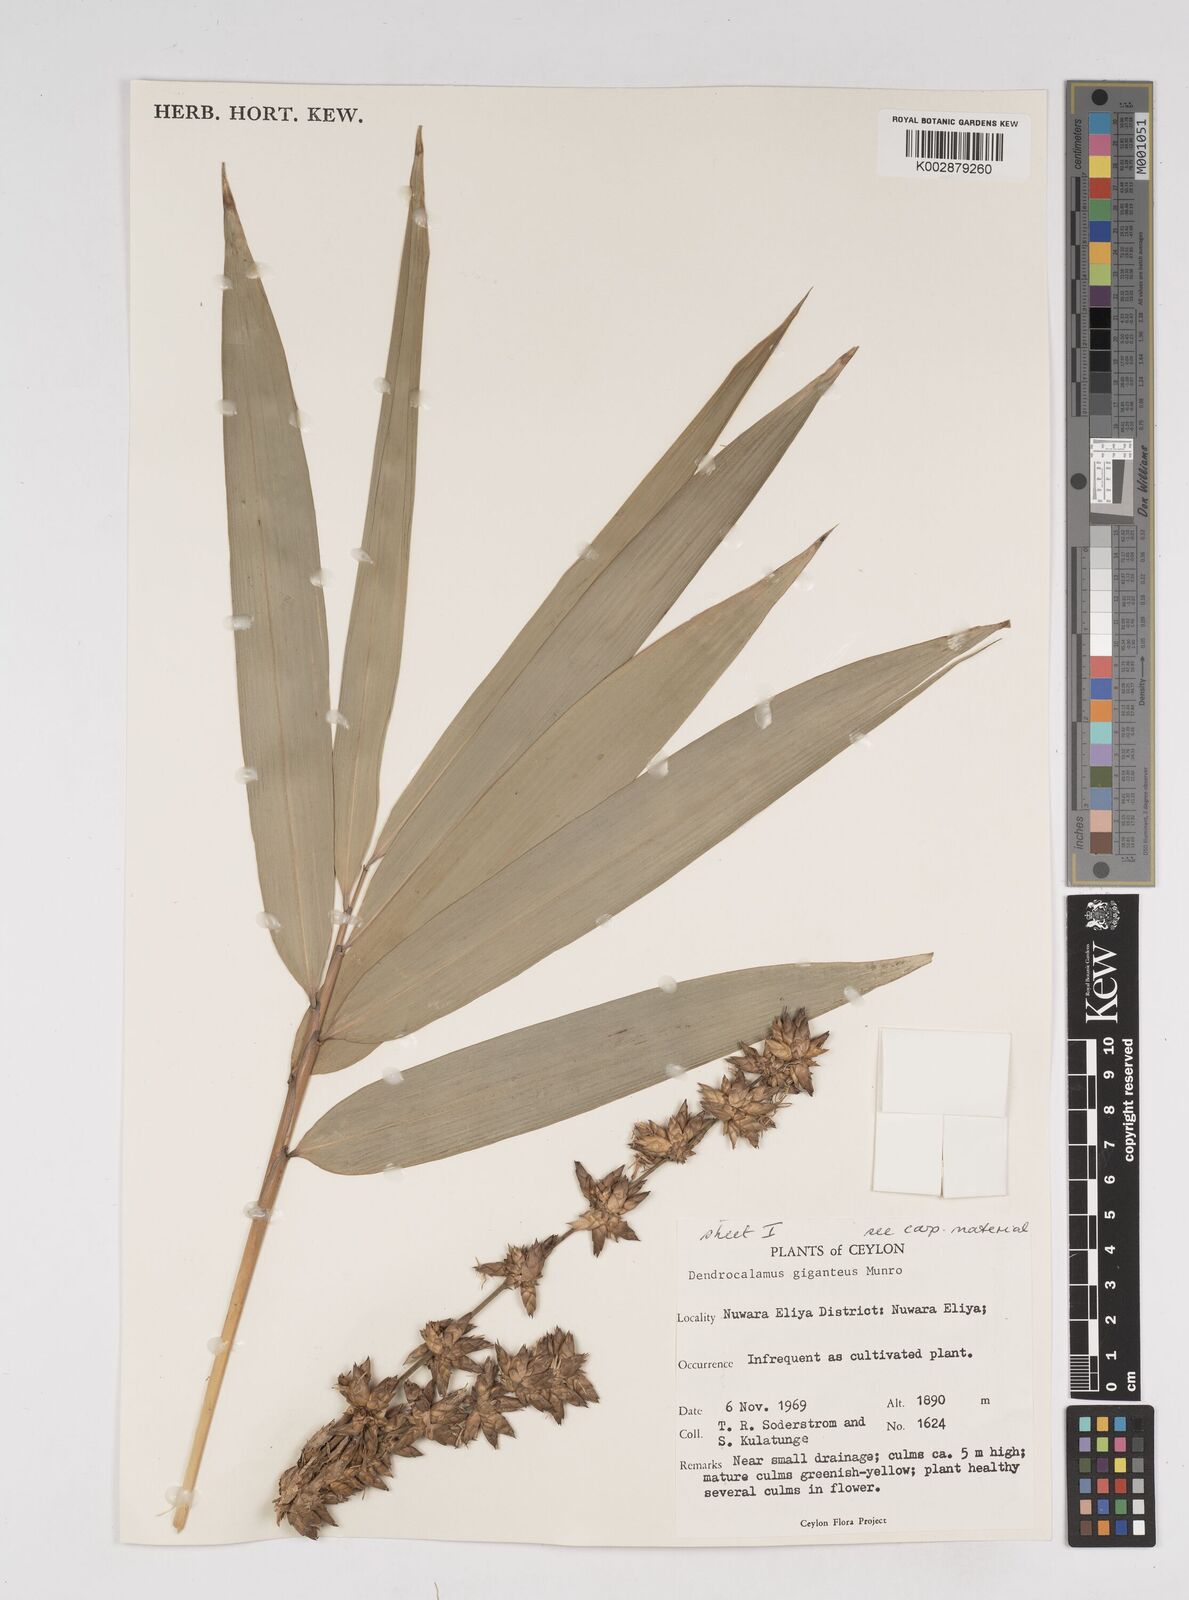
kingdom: Plantae
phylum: Tracheophyta
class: Liliopsida
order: Poales
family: Poaceae
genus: Dendrocalamus
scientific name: Dendrocalamus giganteus
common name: Giant bamboo
